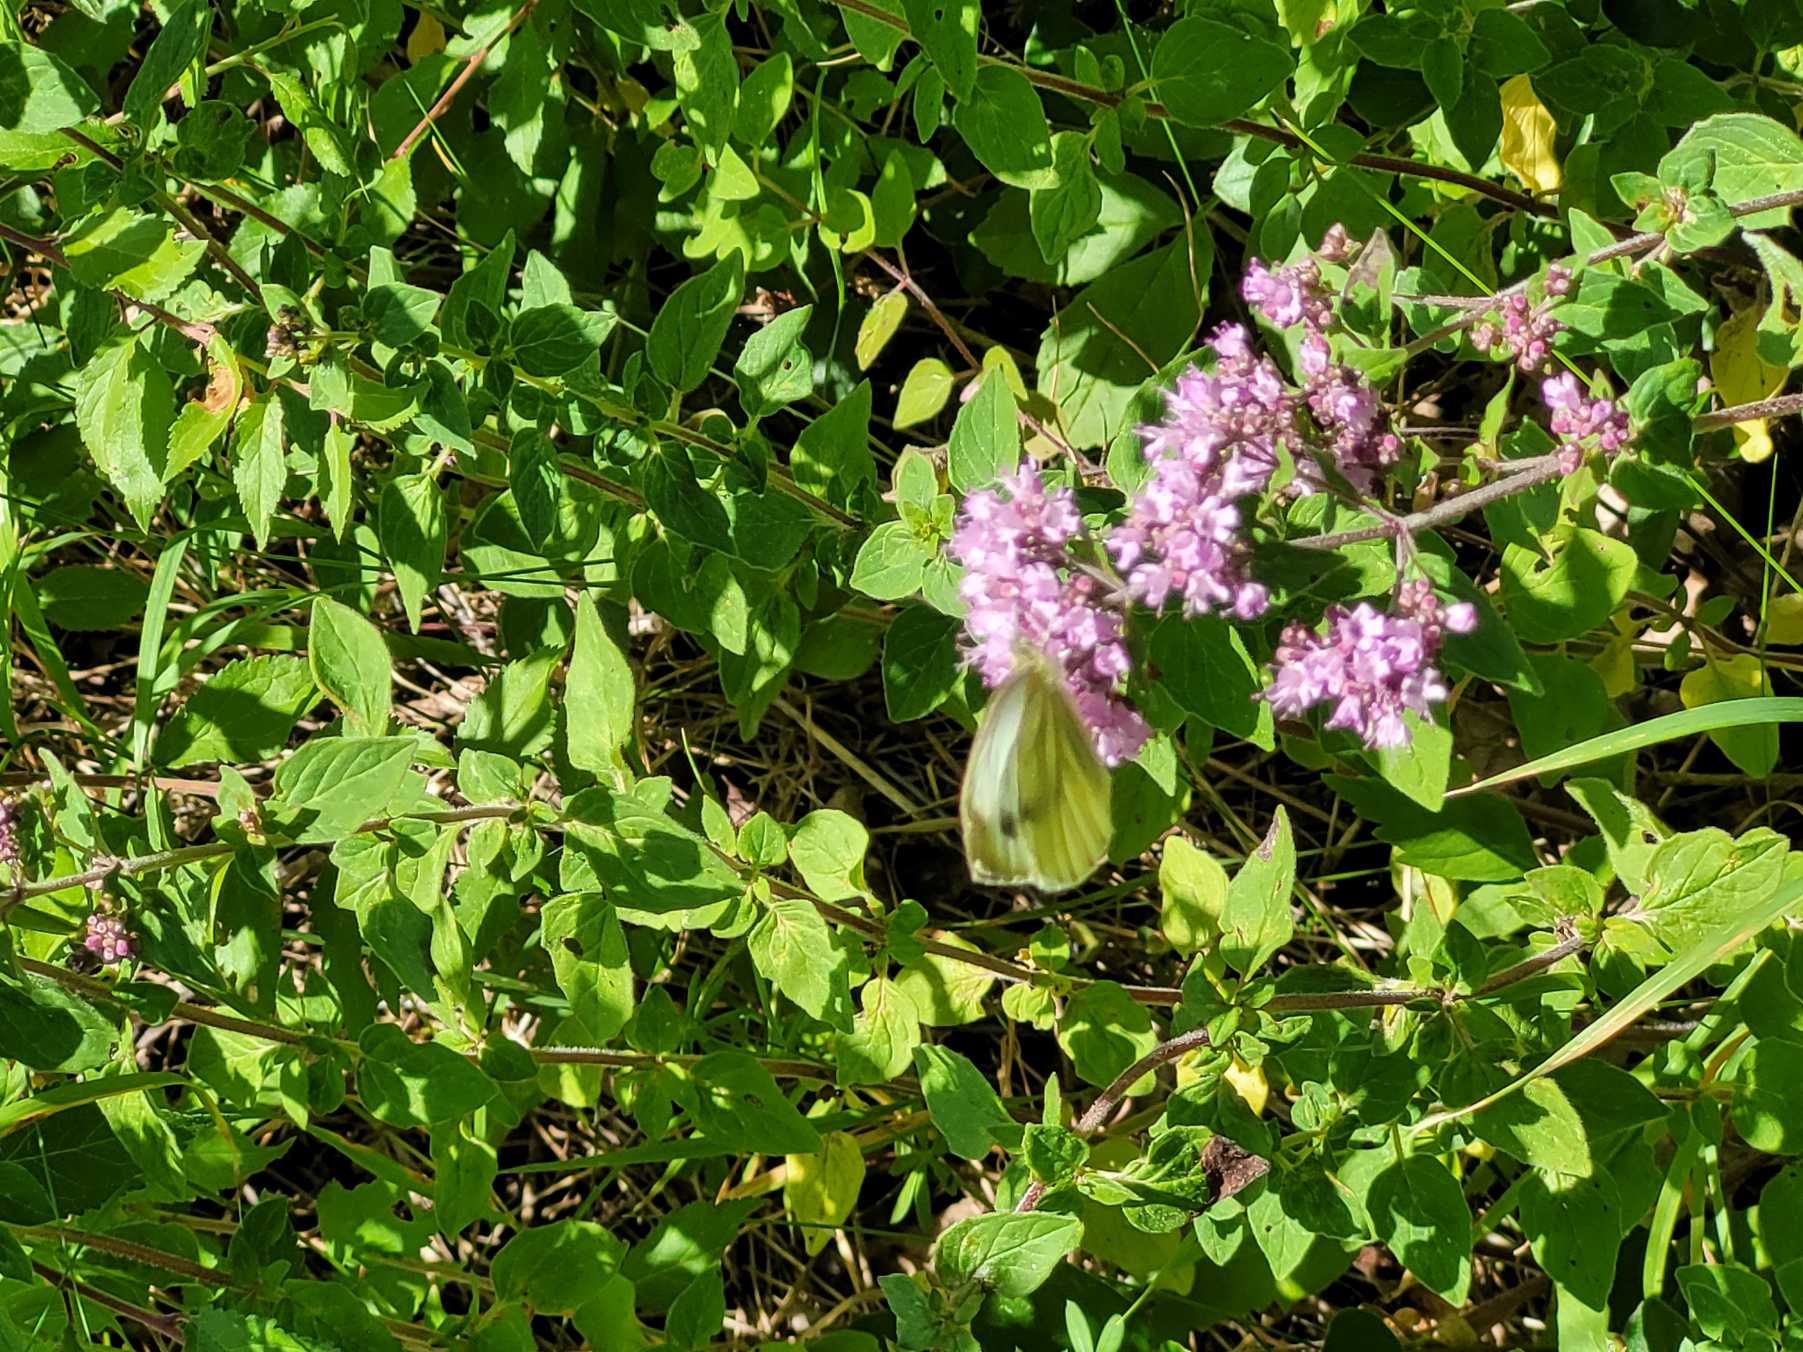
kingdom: Animalia
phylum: Arthropoda
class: Insecta
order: Lepidoptera
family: Pieridae
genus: Pieris
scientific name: Pieris napi
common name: Grønåret kålsommerfugl
